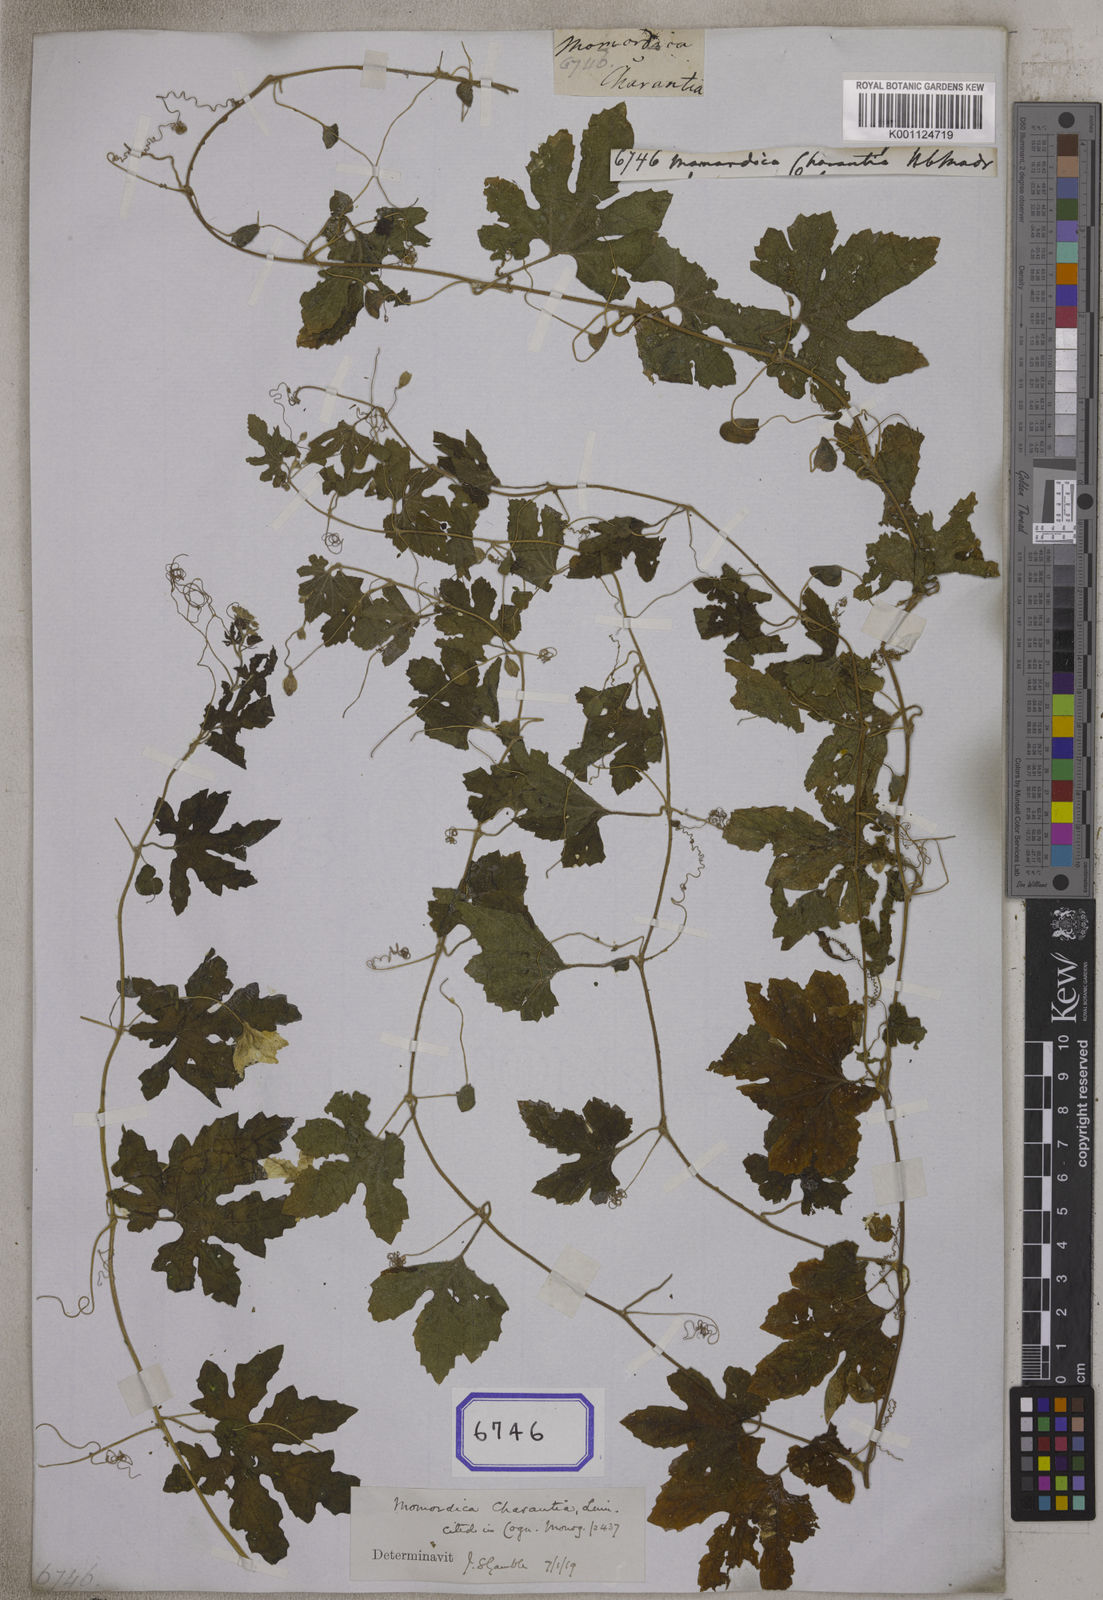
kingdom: Plantae
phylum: Tracheophyta
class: Magnoliopsida
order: Cucurbitales
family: Cucurbitaceae
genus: Momordica
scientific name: Momordica charantia
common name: Balsampear
